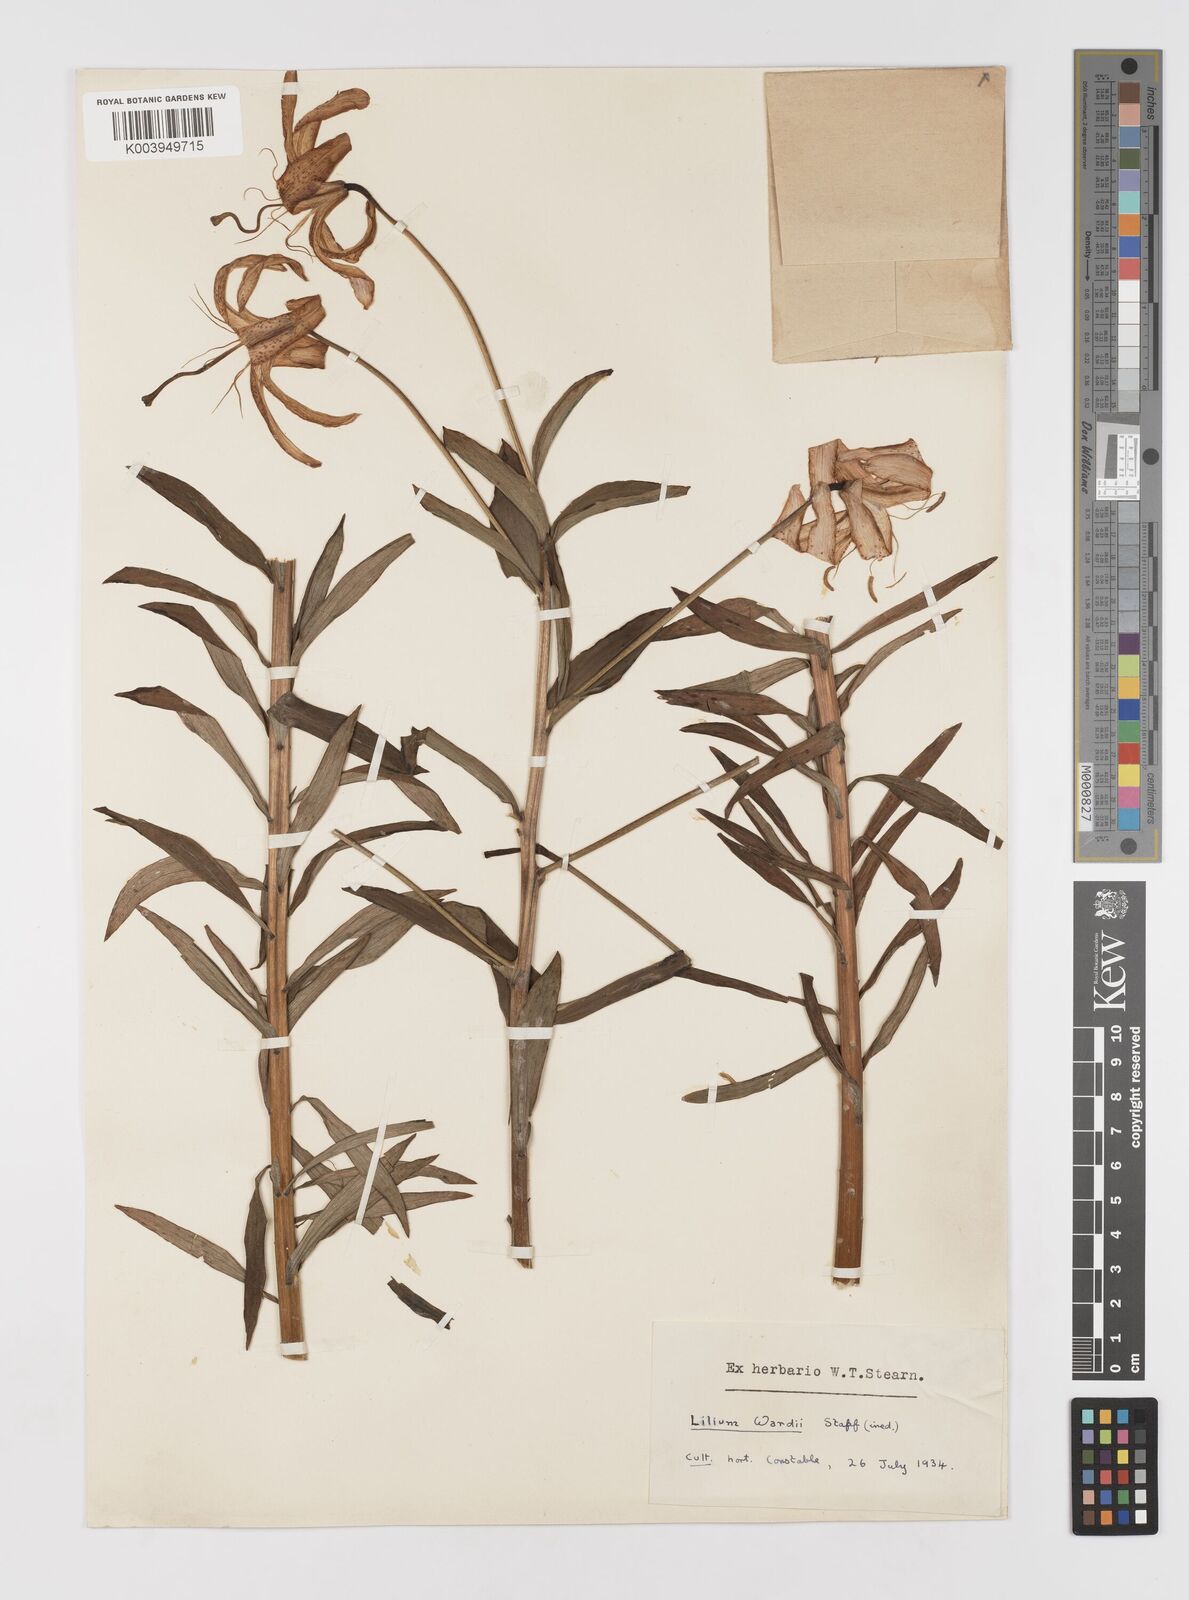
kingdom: Plantae
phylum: Tracheophyta
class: Liliopsida
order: Liliales
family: Liliaceae
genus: Lilium
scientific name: Lilium wardii
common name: Ward's lily
